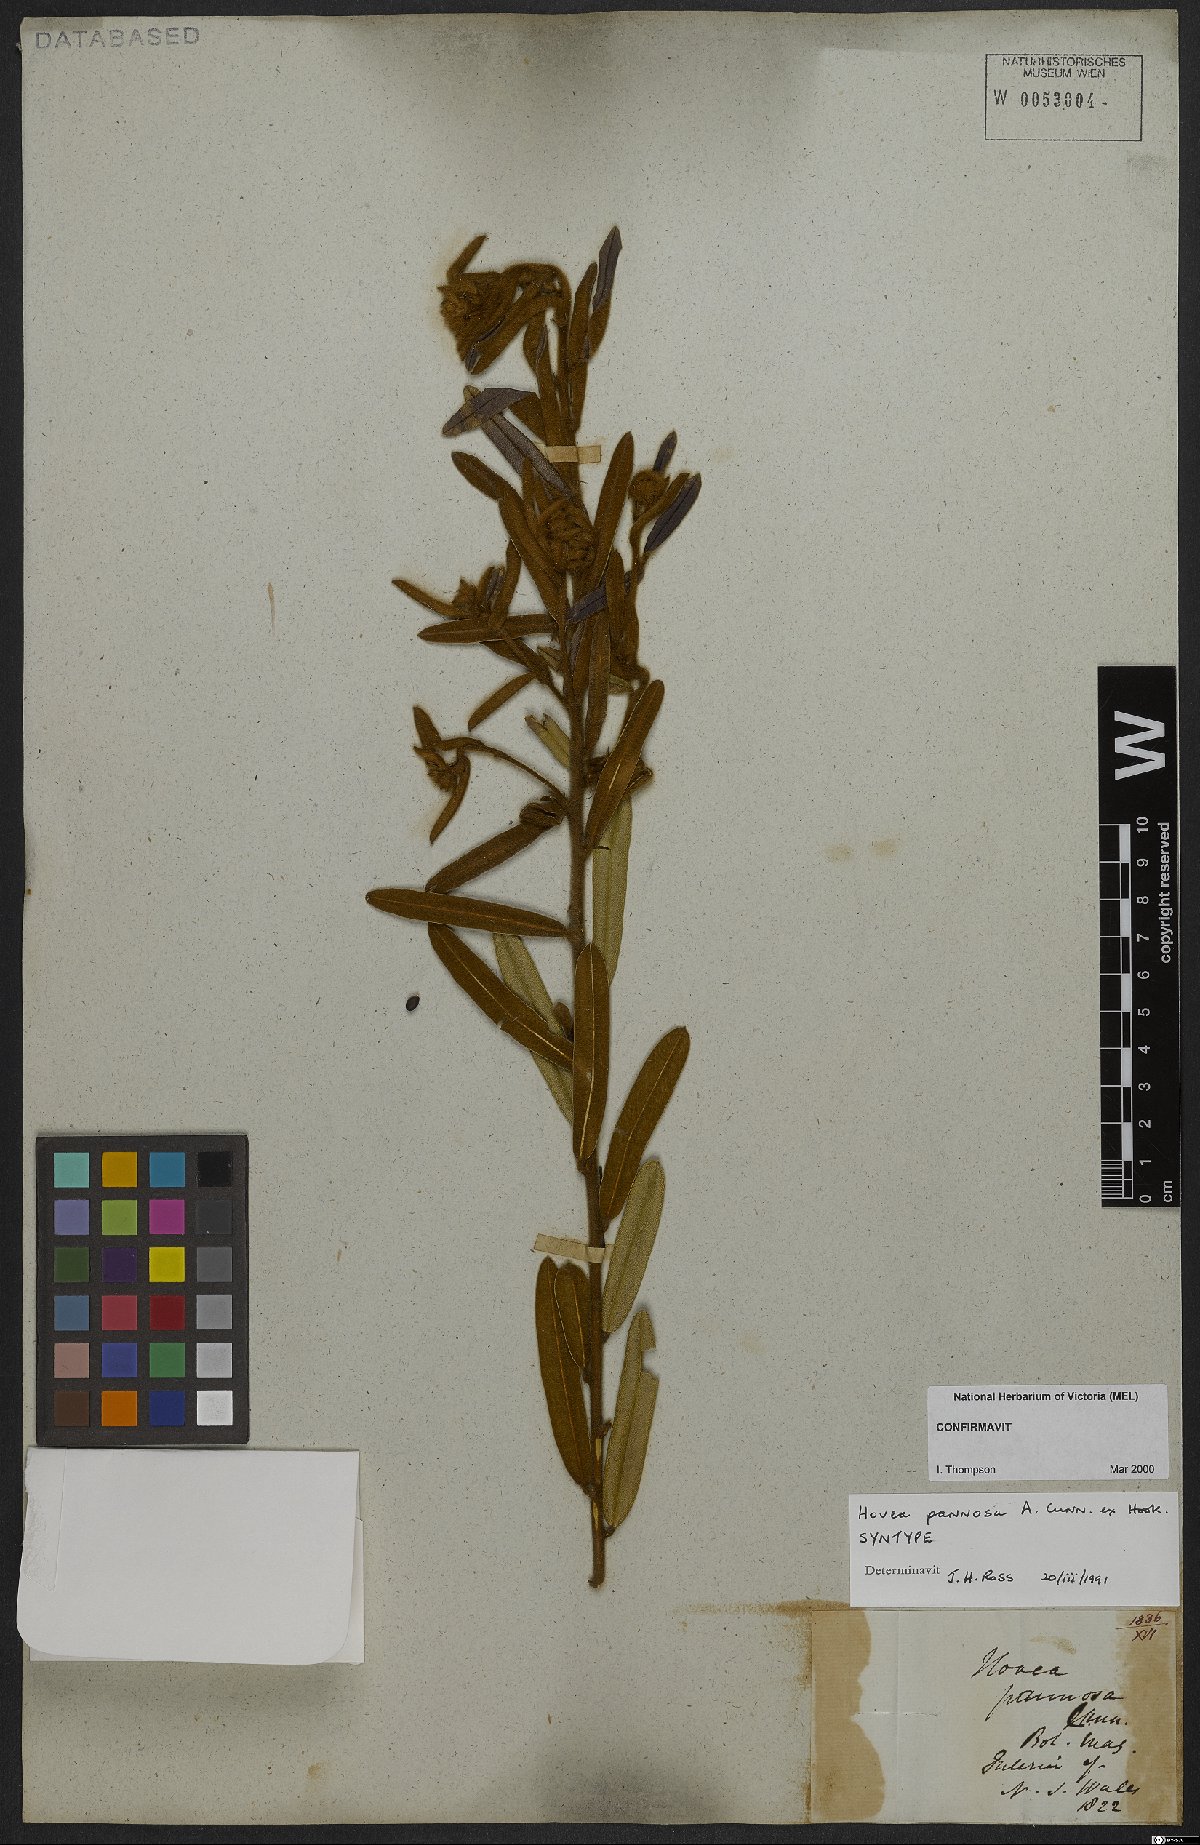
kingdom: Plantae
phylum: Tracheophyta
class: Magnoliopsida
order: Fabales
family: Fabaceae
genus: Hovea
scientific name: Hovea pannosa
